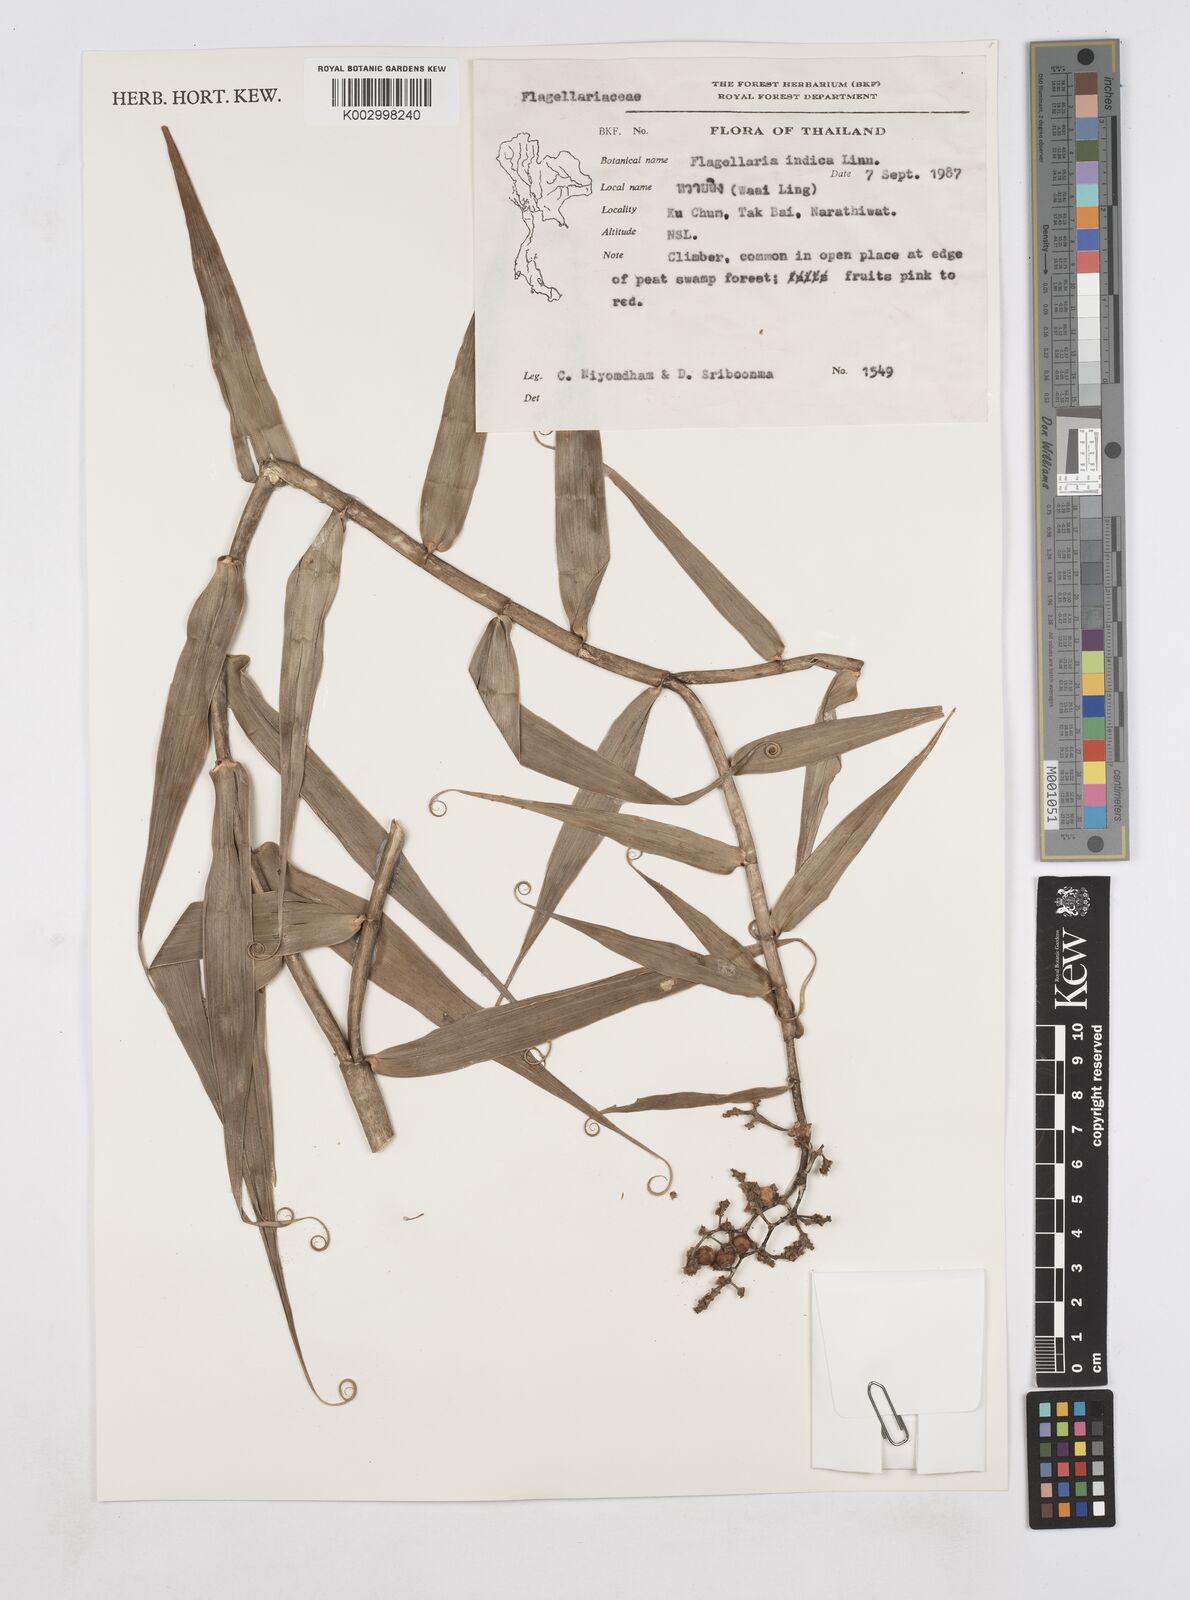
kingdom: Plantae
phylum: Tracheophyta
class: Liliopsida
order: Poales
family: Flagellariaceae
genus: Flagellaria
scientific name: Flagellaria indica
